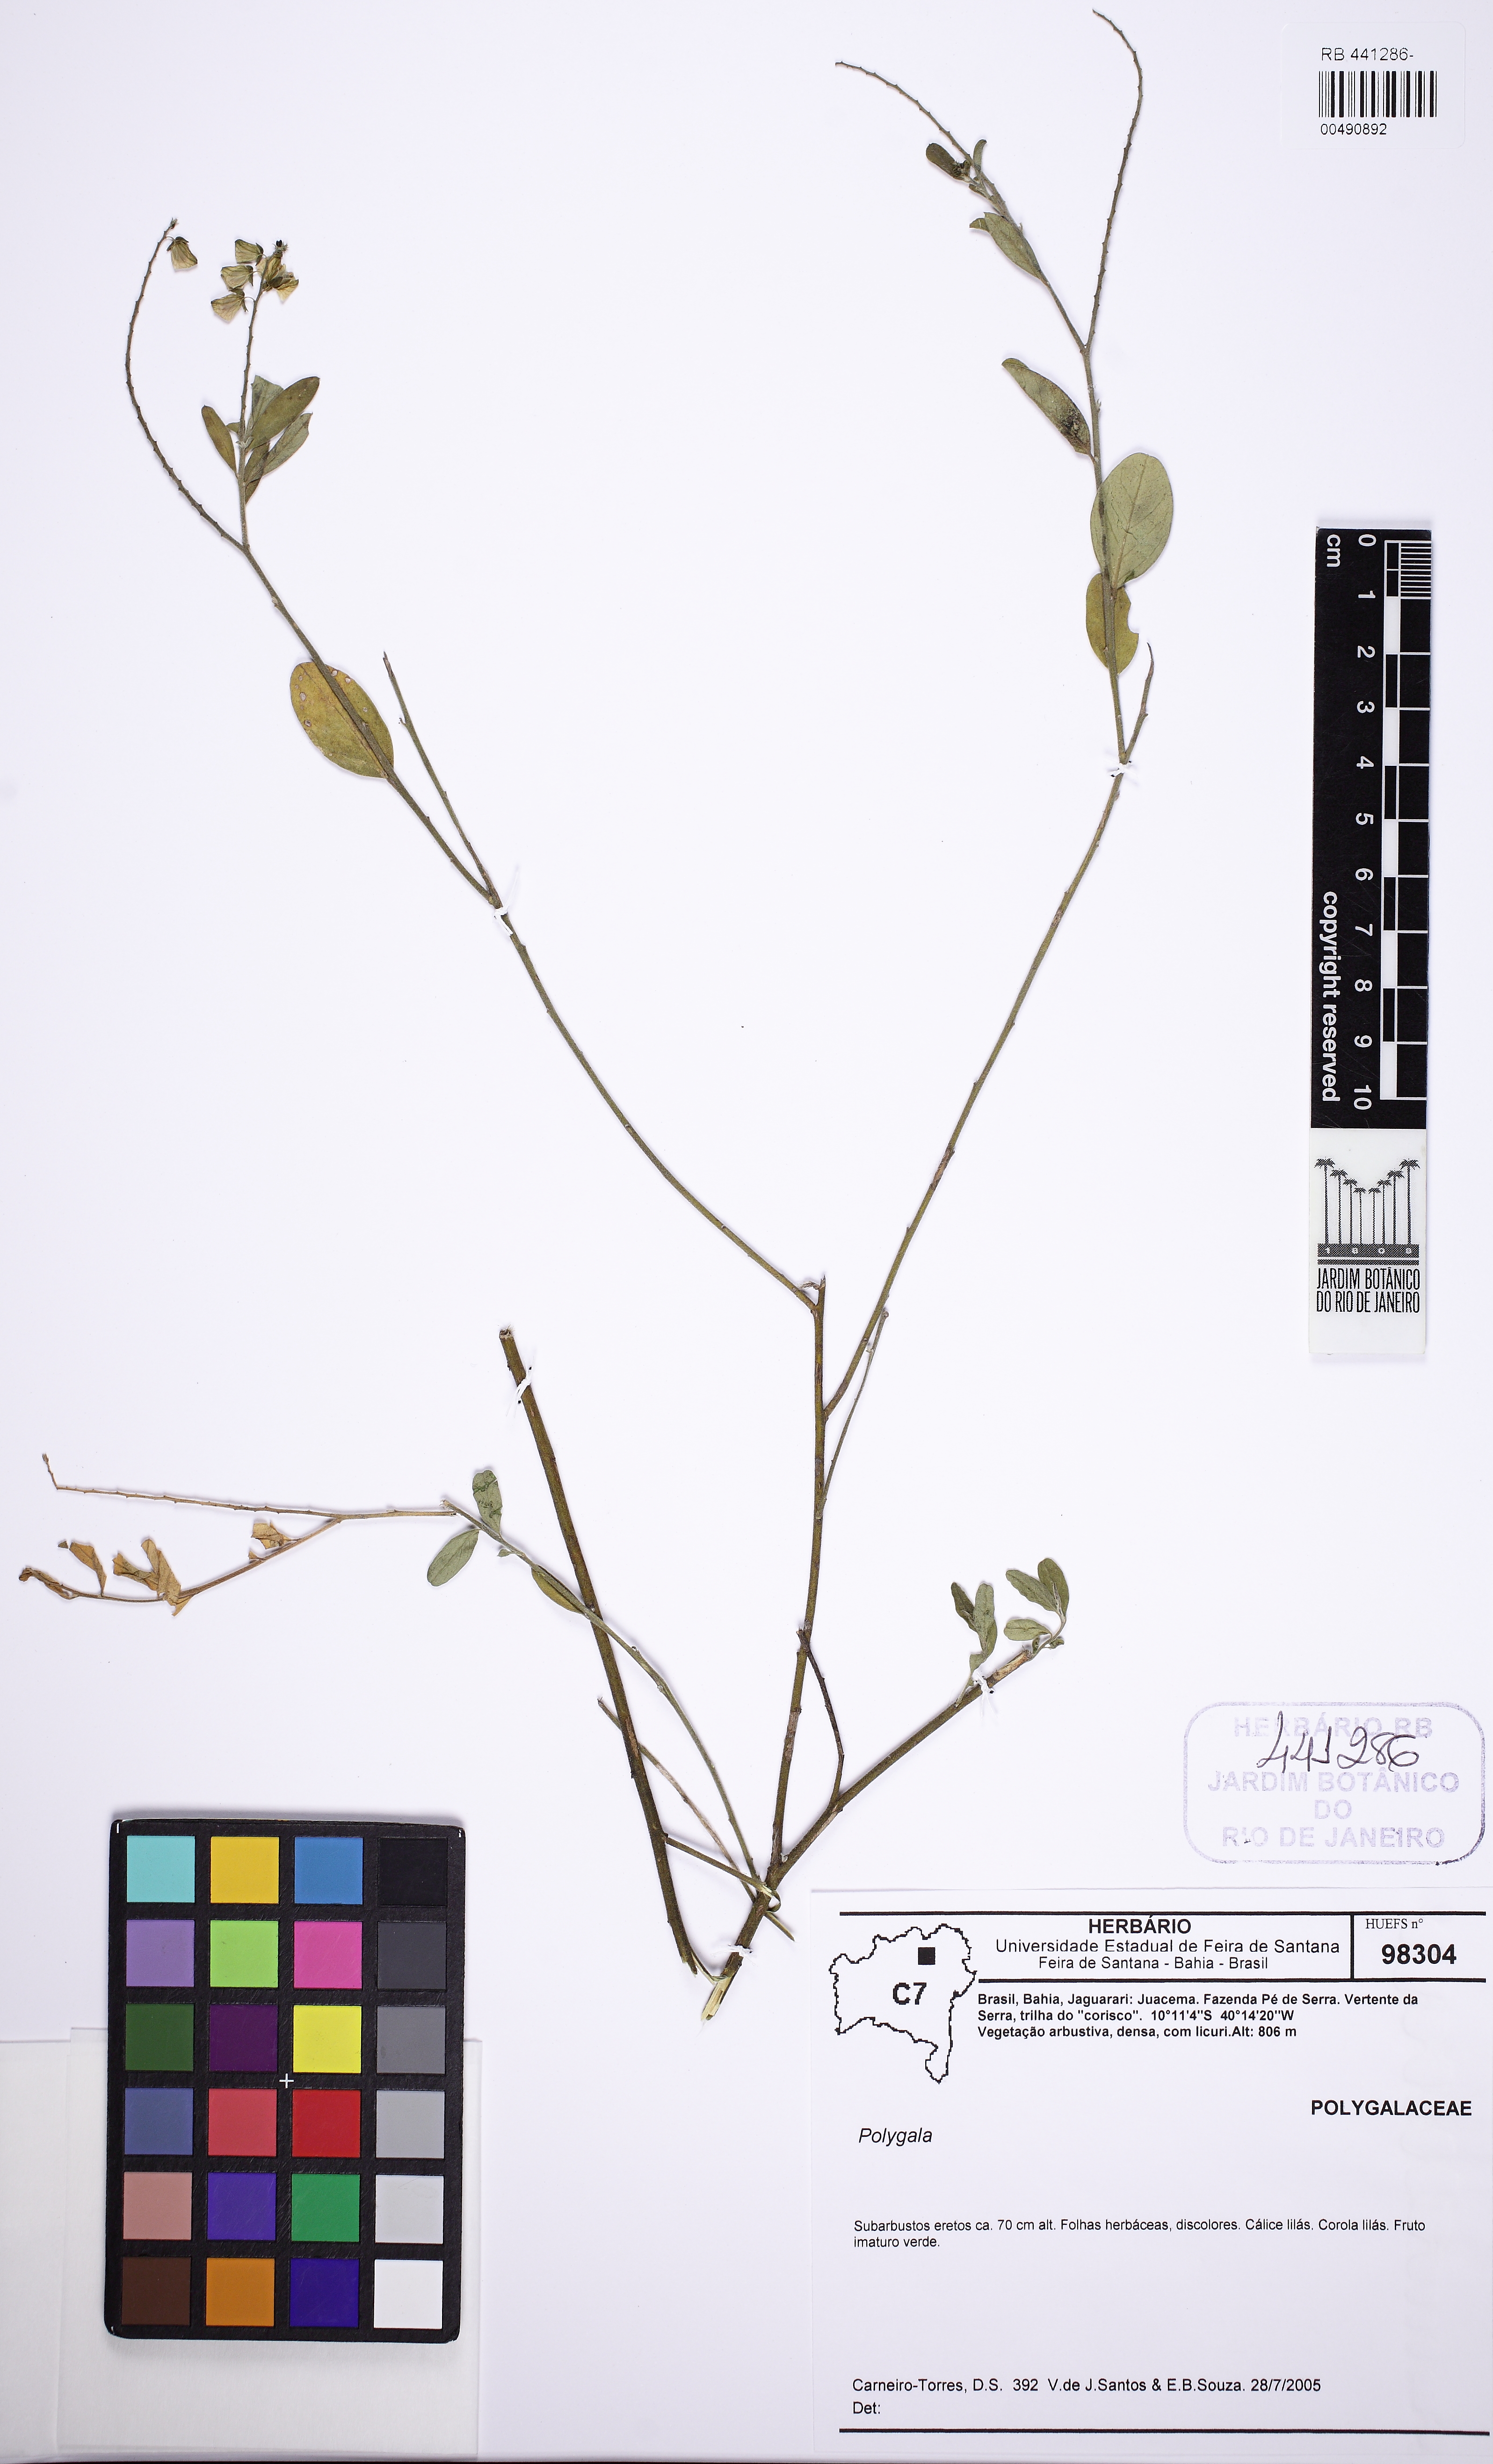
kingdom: Plantae
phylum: Tracheophyta
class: Magnoliopsida
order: Fabales
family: Polygalaceae
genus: Asemeia
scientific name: Asemeia
